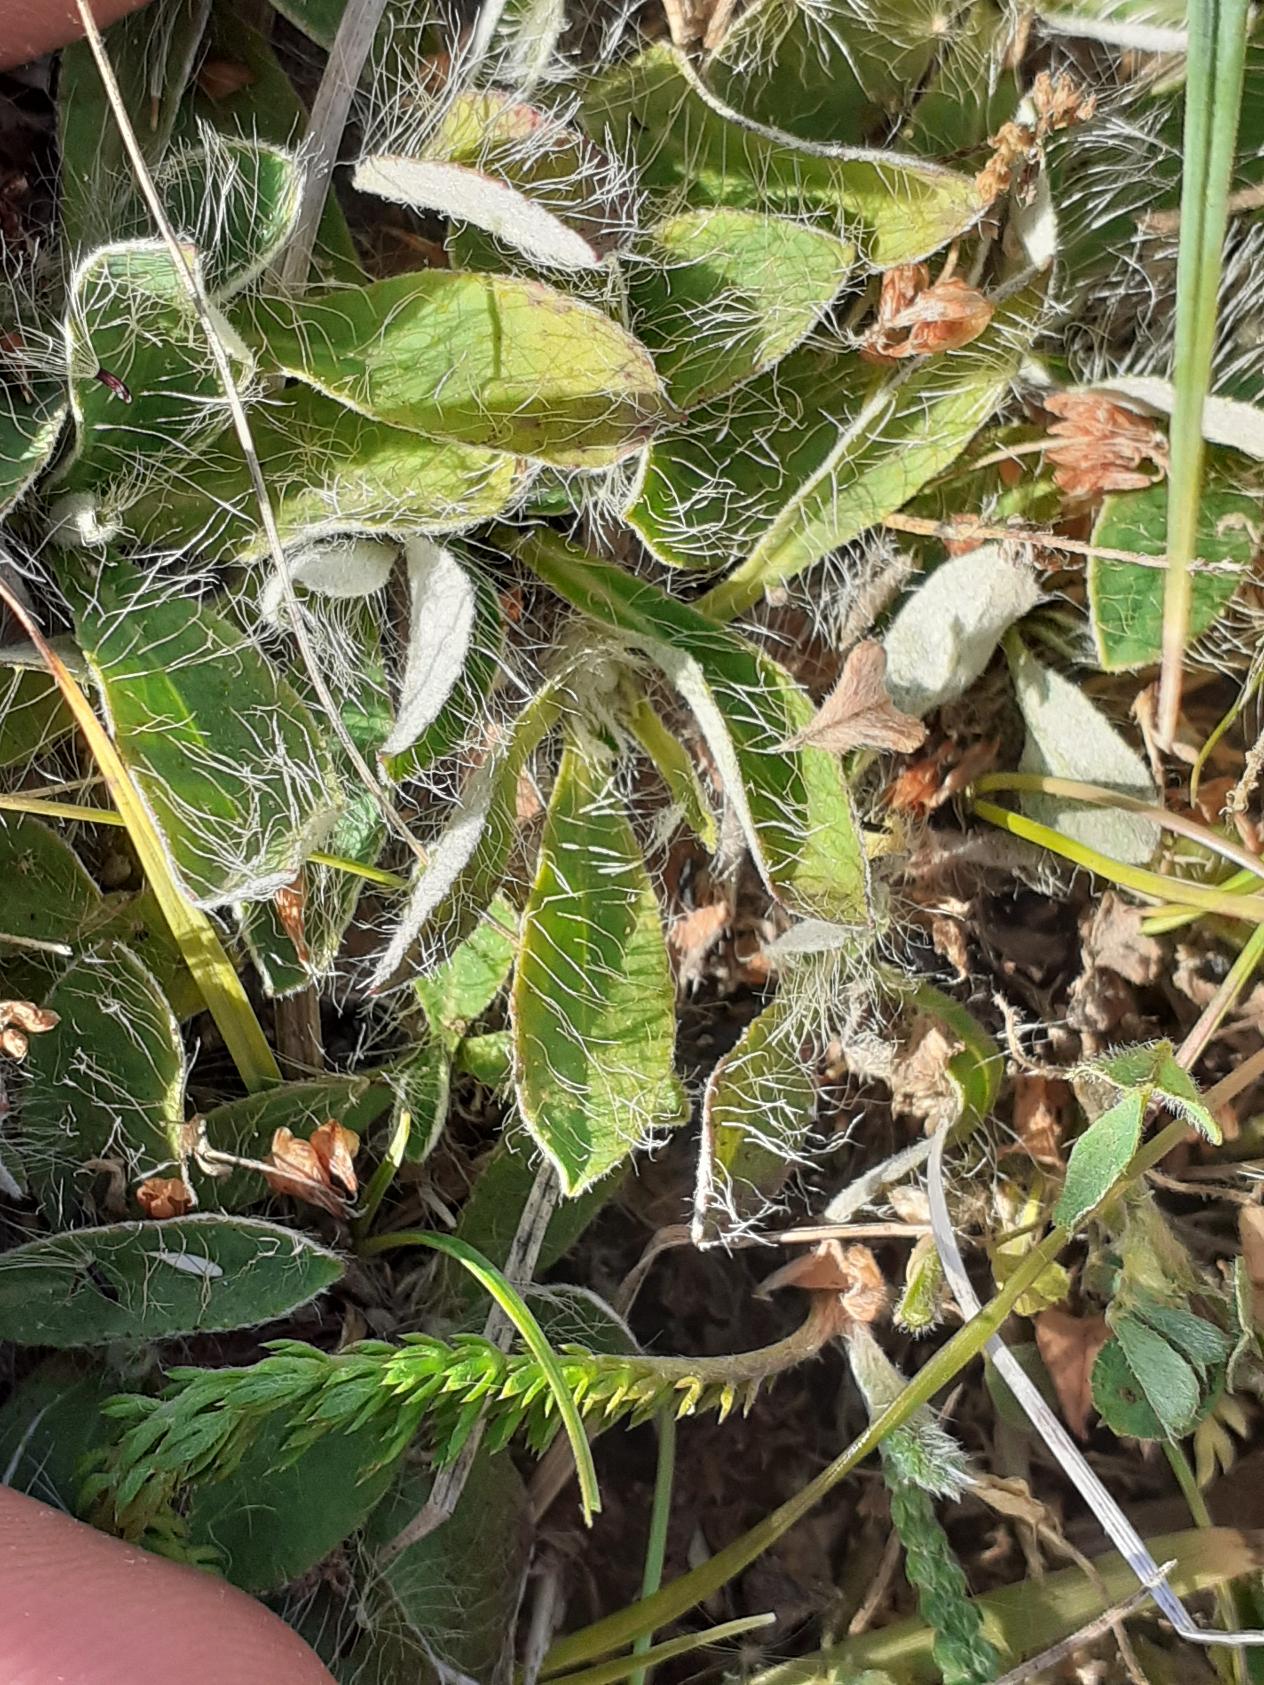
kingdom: Plantae
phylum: Tracheophyta
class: Magnoliopsida
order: Asterales
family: Asteraceae
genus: Pilosella
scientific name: Pilosella officinarum
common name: Håret høgeurt
